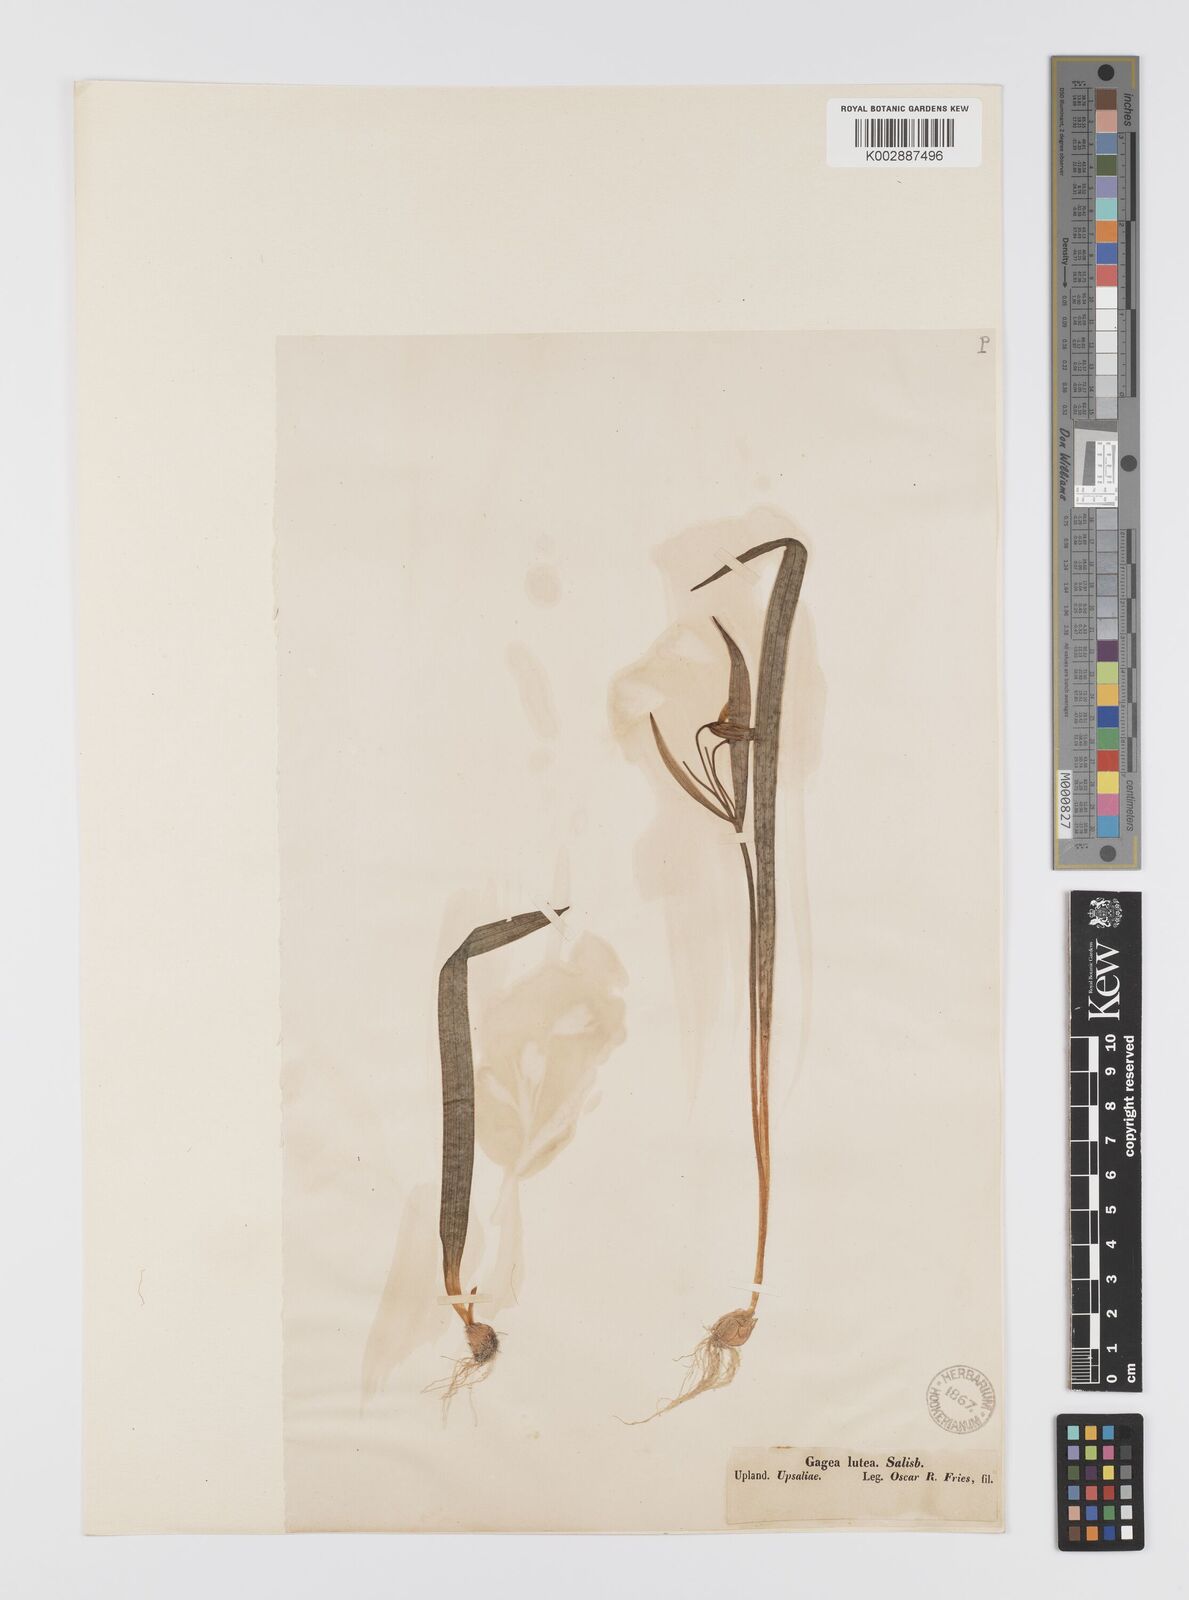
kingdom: Plantae
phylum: Tracheophyta
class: Liliopsida
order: Liliales
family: Liliaceae
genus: Gagea
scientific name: Gagea lutea
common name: Yellow star-of-bethlehem
